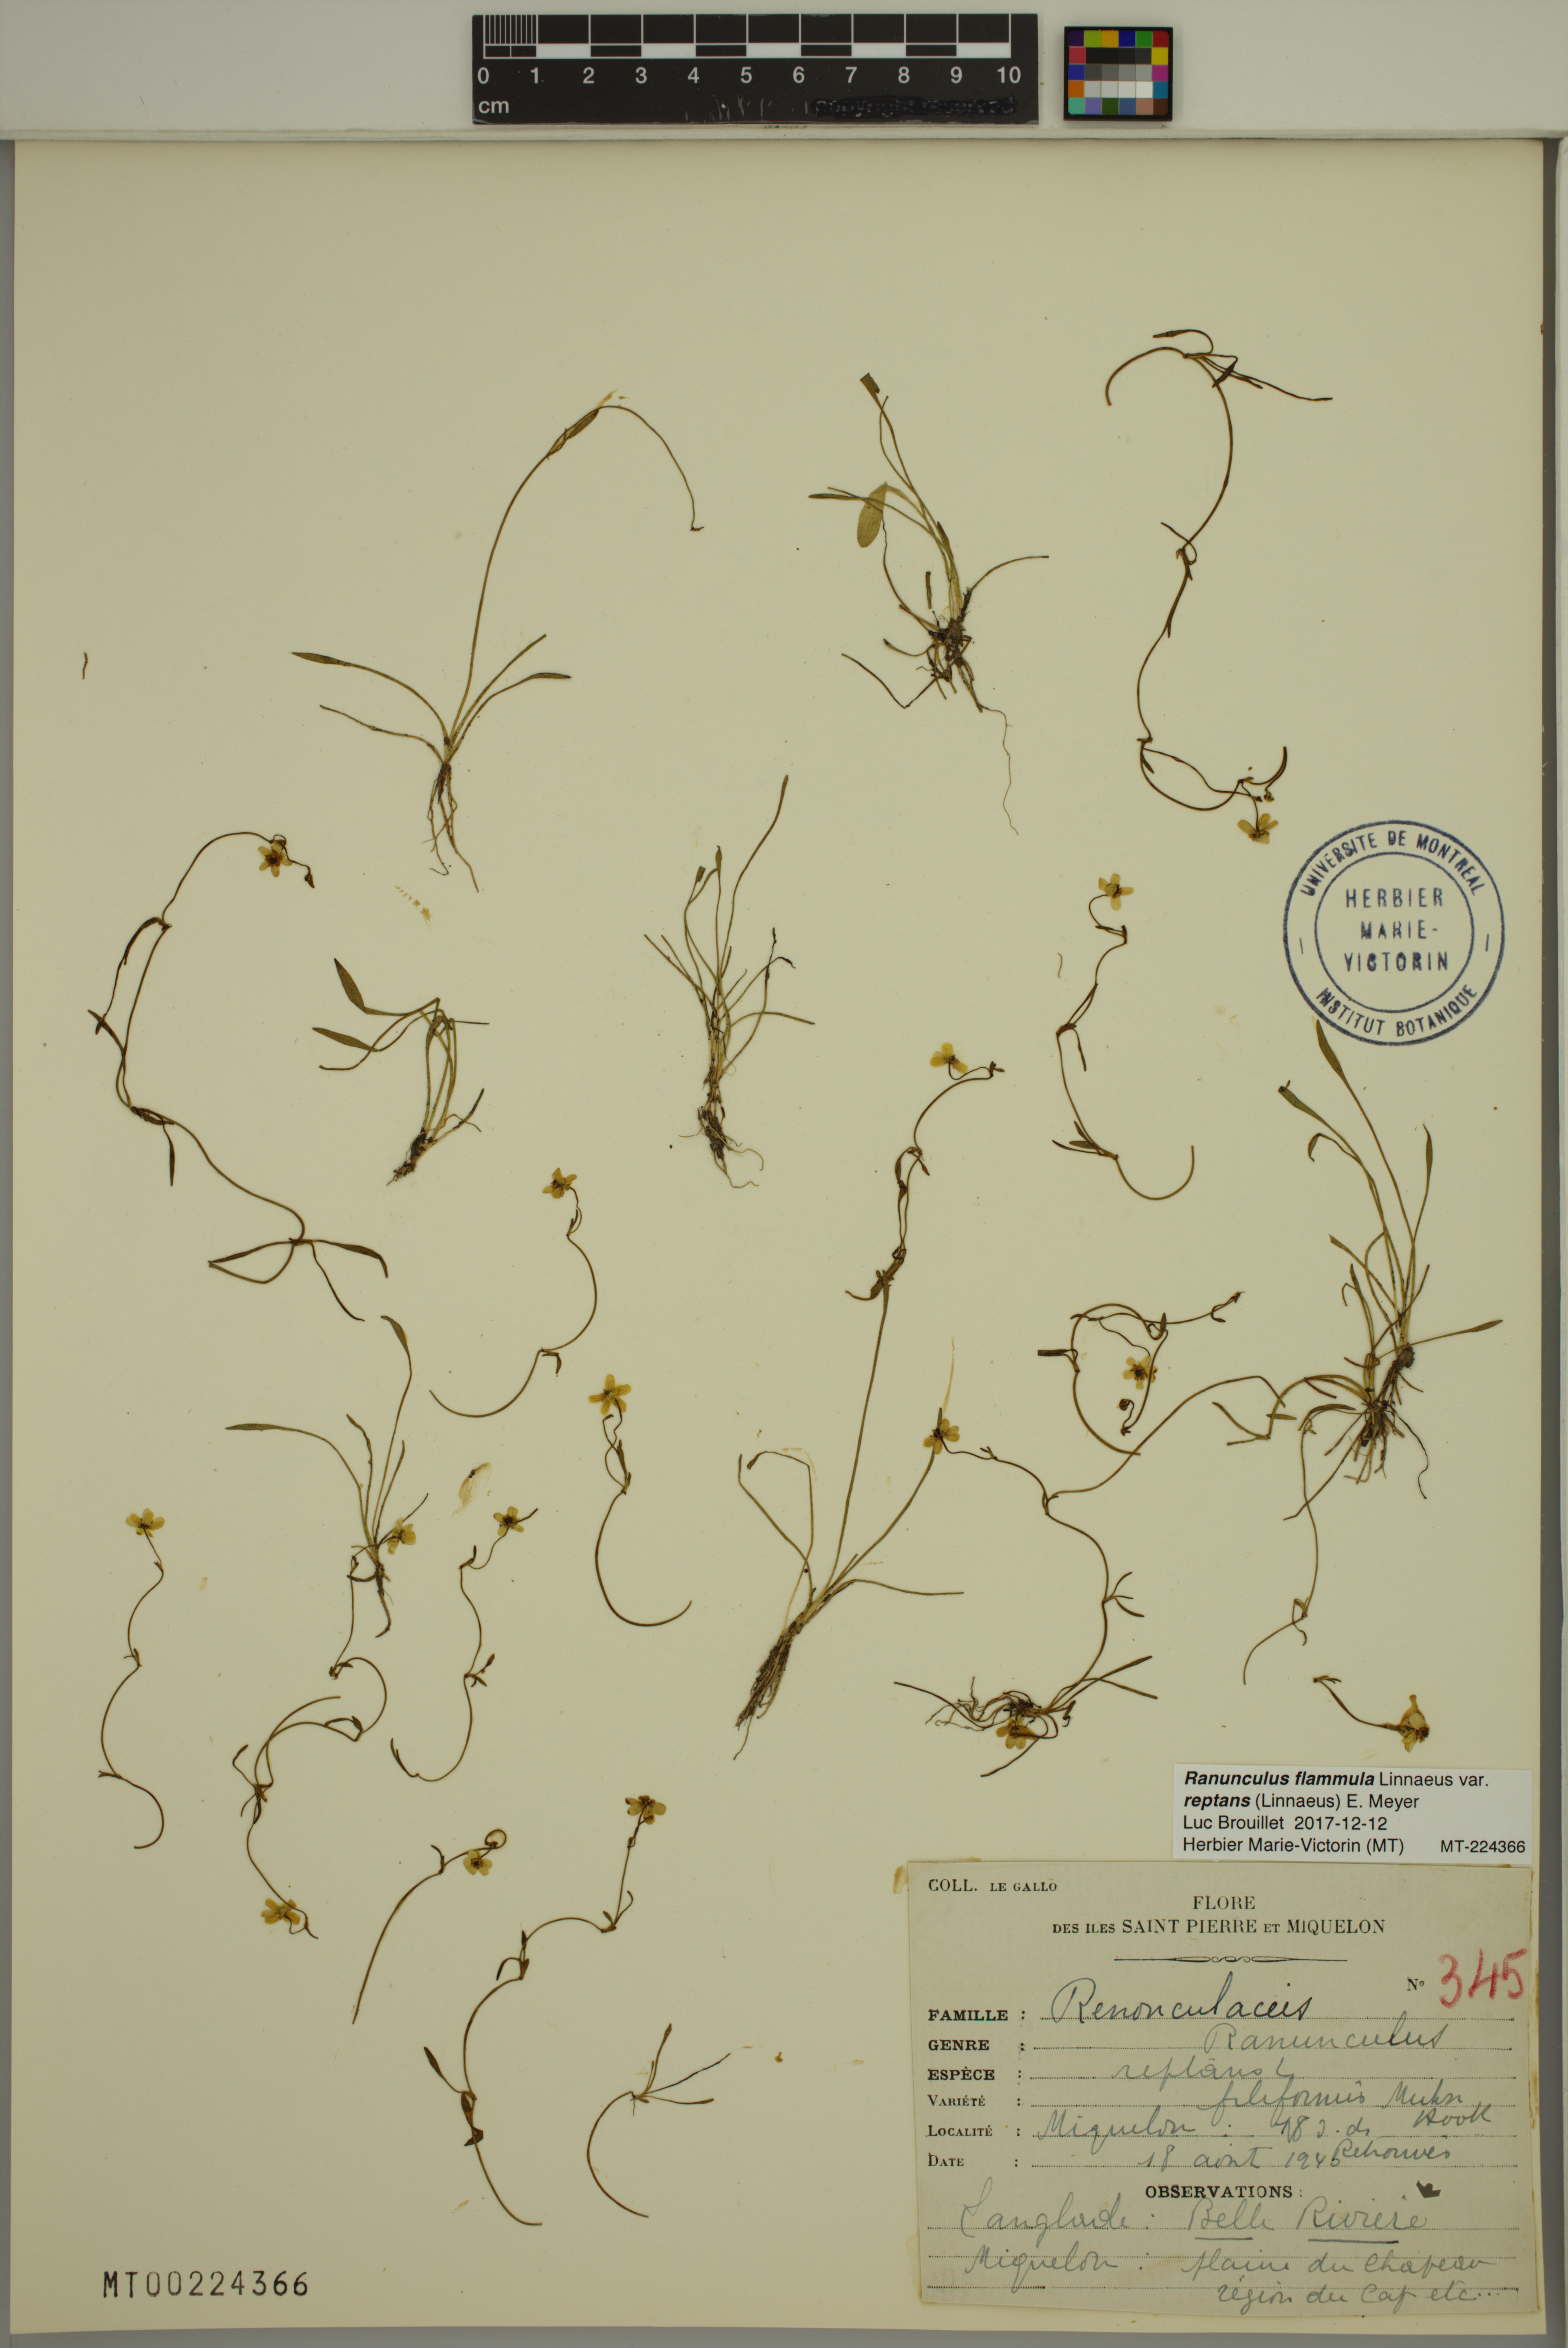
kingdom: Plantae
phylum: Tracheophyta
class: Magnoliopsida
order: Ranunculales
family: Ranunculaceae
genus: Ranunculus
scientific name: Ranunculus reptans
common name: Creeping spearwort
